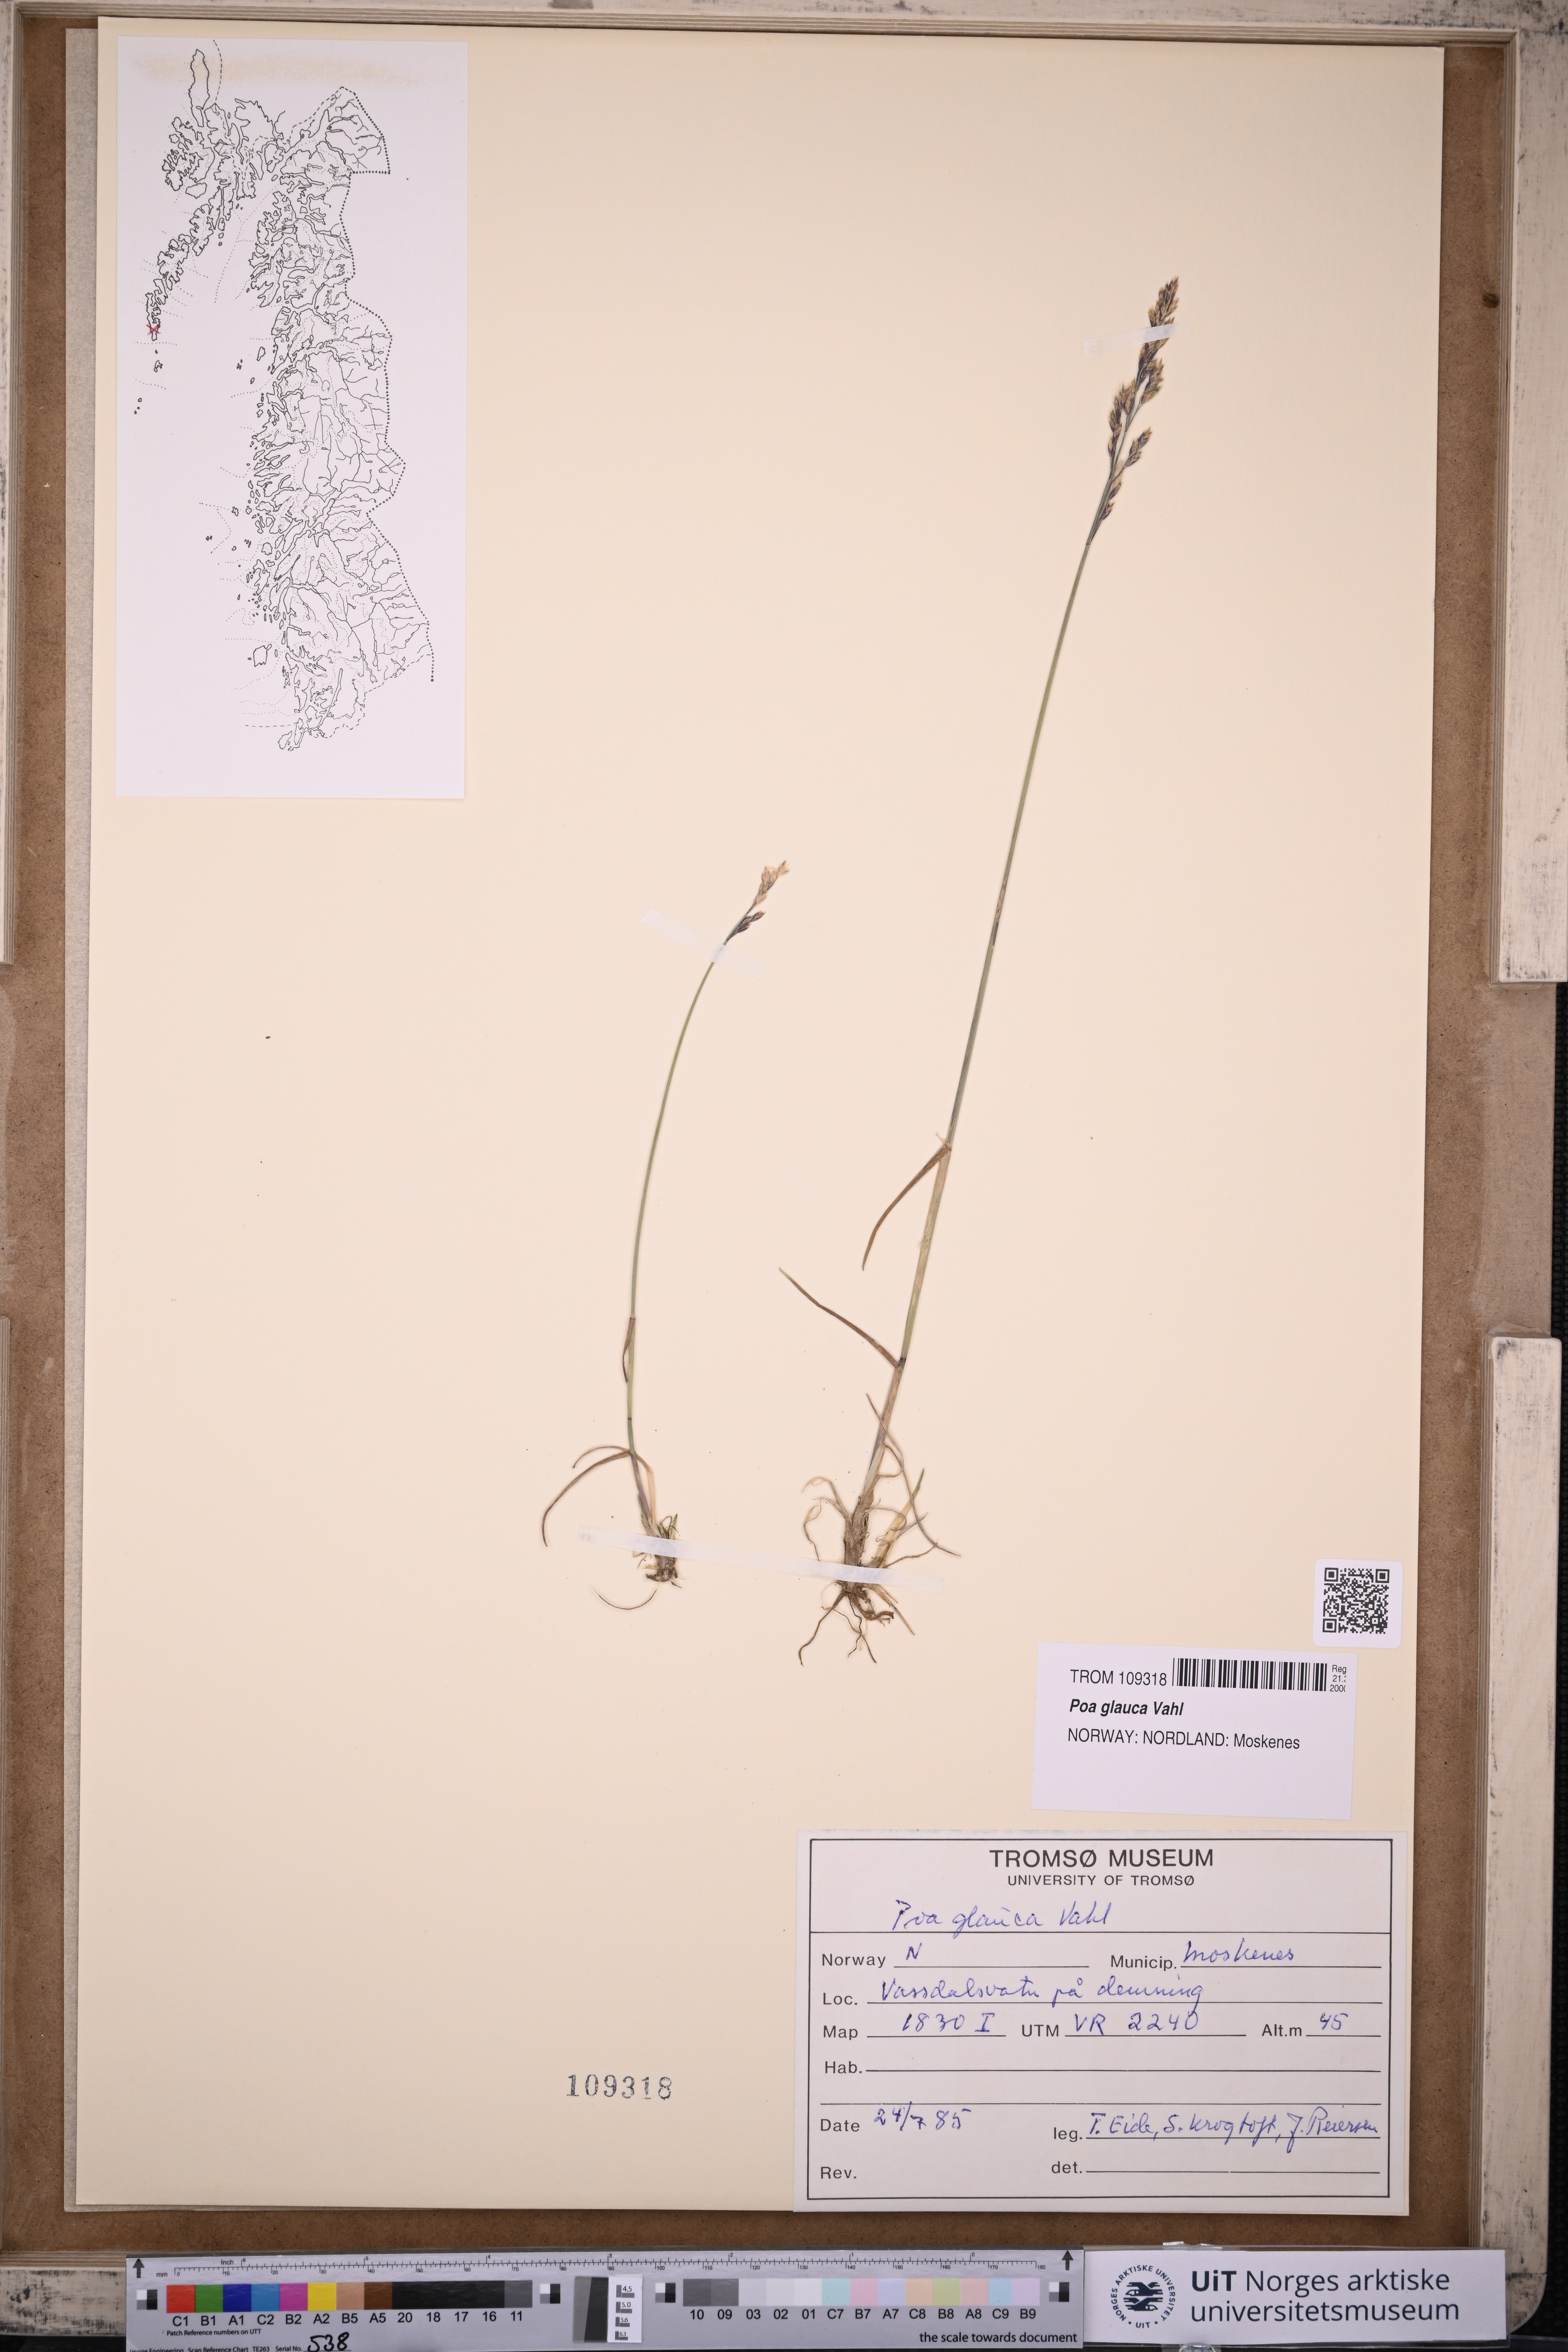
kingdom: Plantae
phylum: Tracheophyta
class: Liliopsida
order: Poales
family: Poaceae
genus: Poa
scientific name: Poa glauca
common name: Glaucous bluegrass
